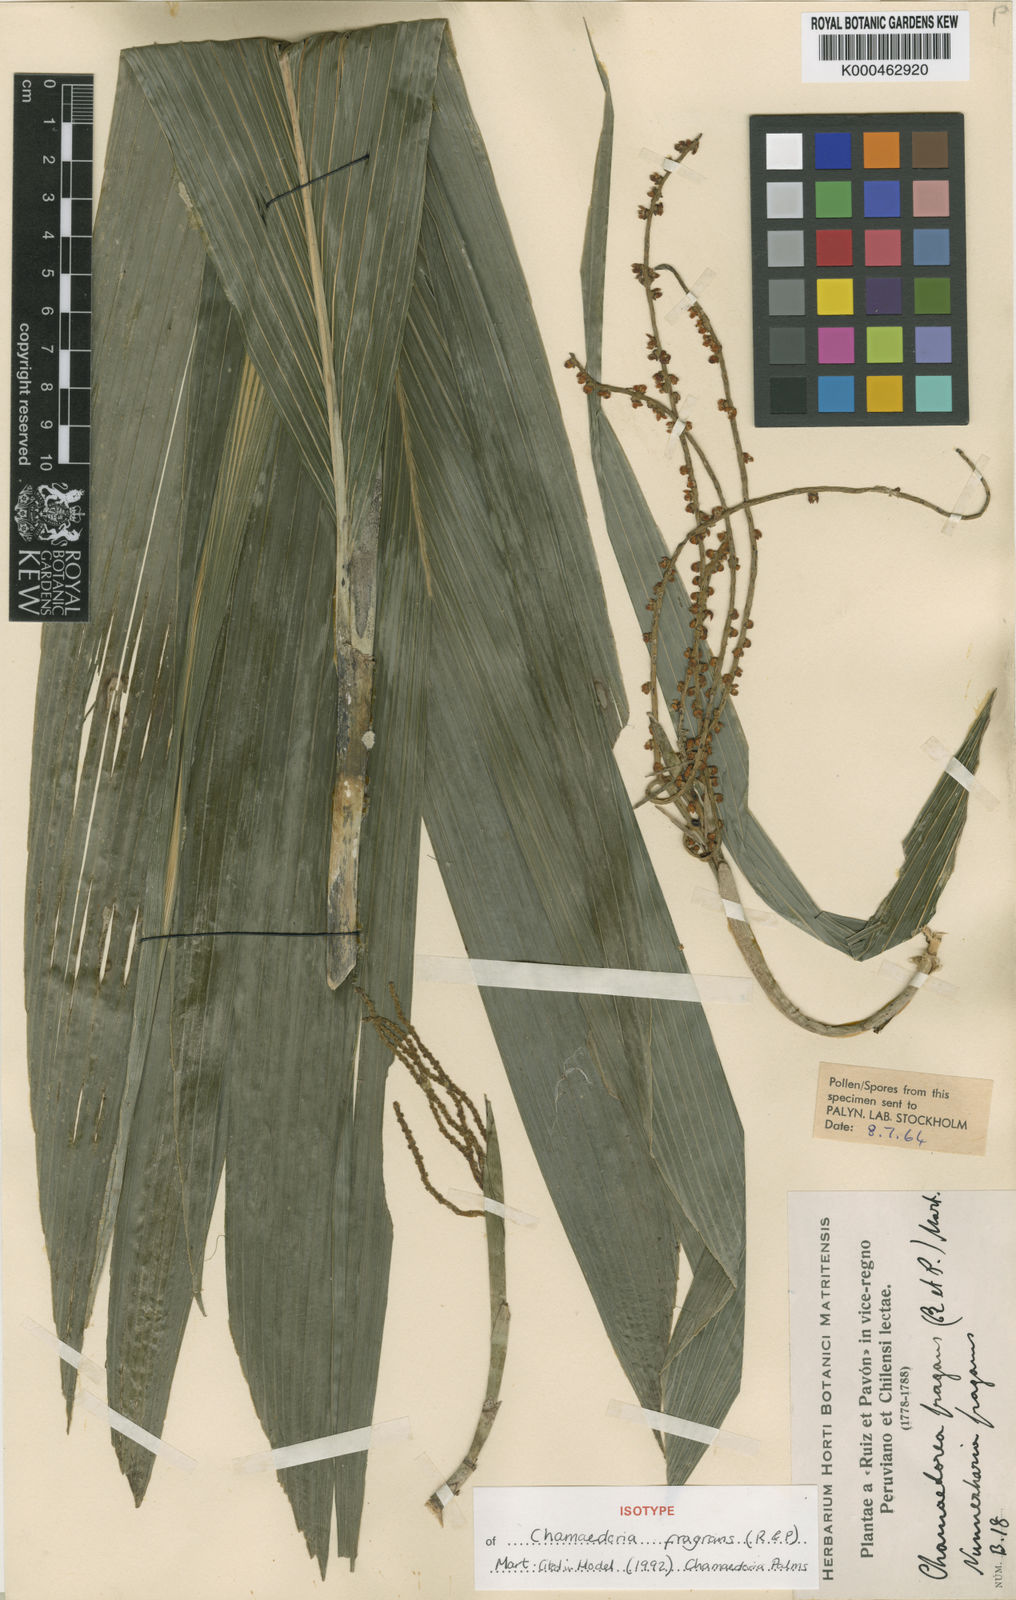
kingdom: Plantae
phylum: Tracheophyta
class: Liliopsida
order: Arecales
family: Arecaceae
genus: Chamaedorea
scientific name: Chamaedorea fragrans
